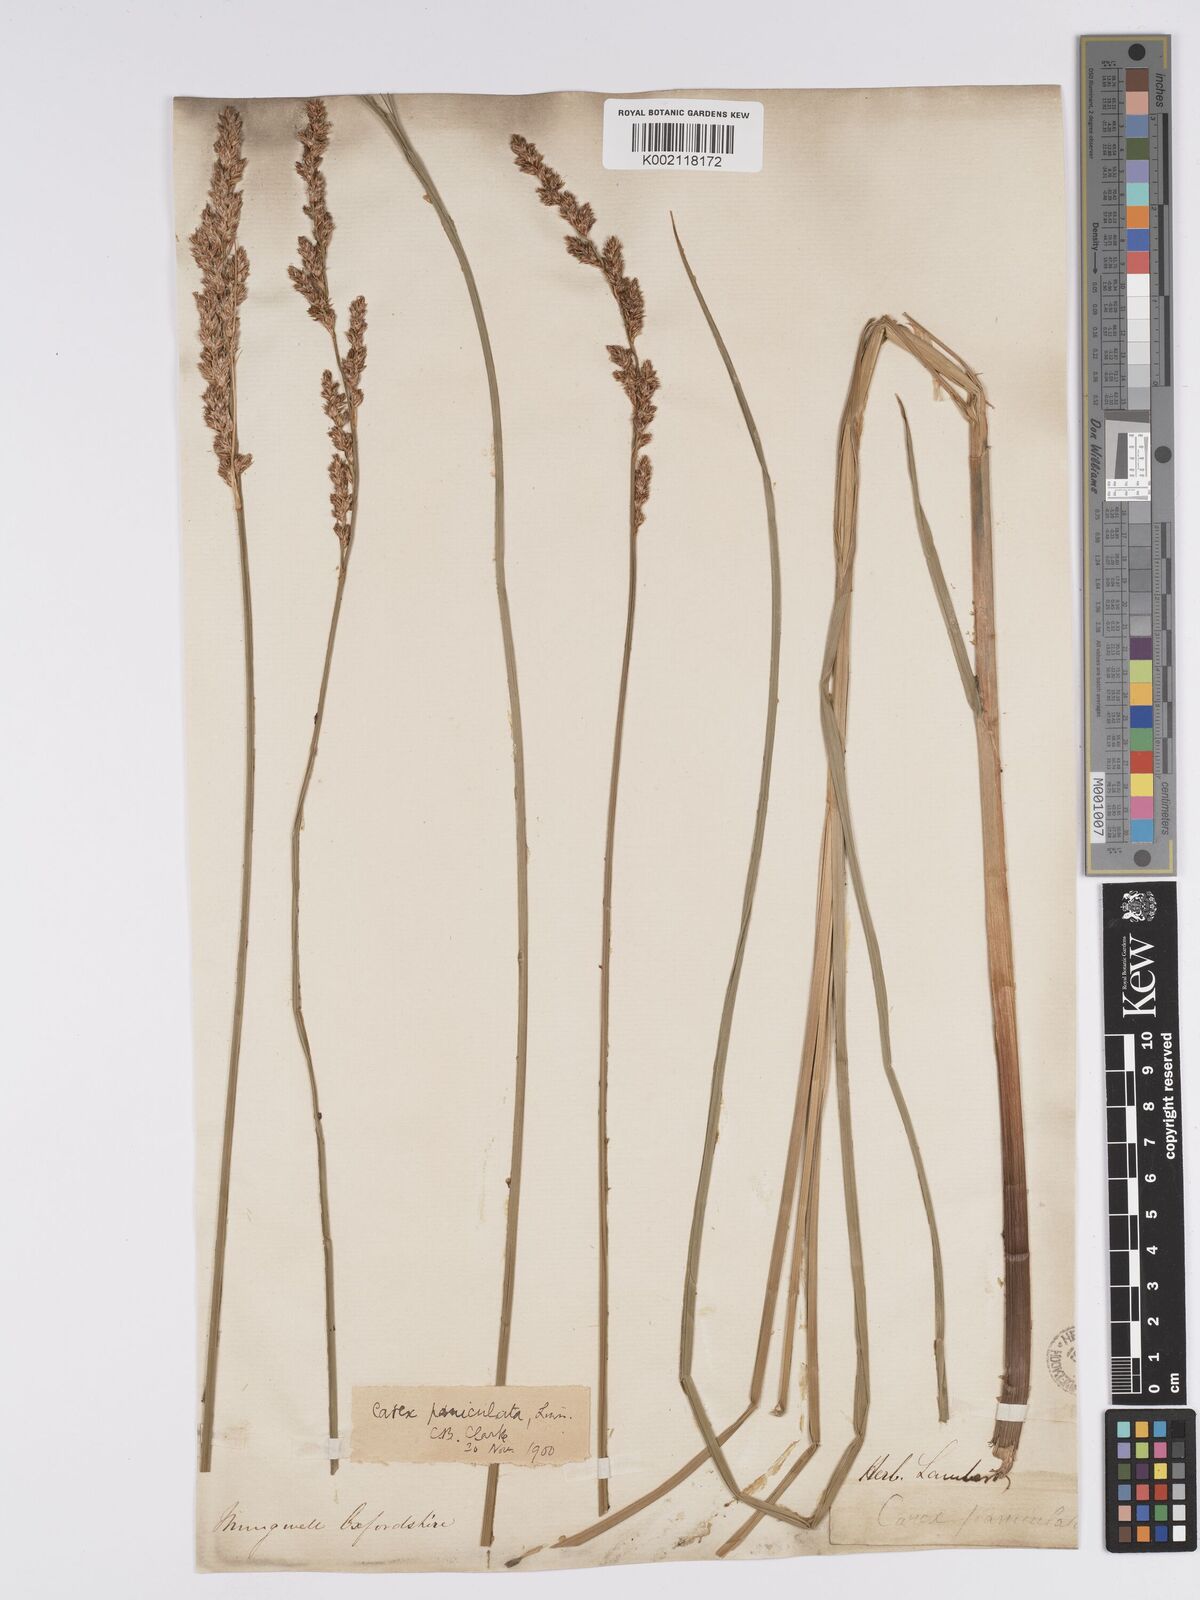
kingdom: Plantae
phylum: Tracheophyta
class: Liliopsida
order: Poales
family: Cyperaceae
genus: Carex
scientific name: Carex paniculata
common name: Greater tussock-sedge
